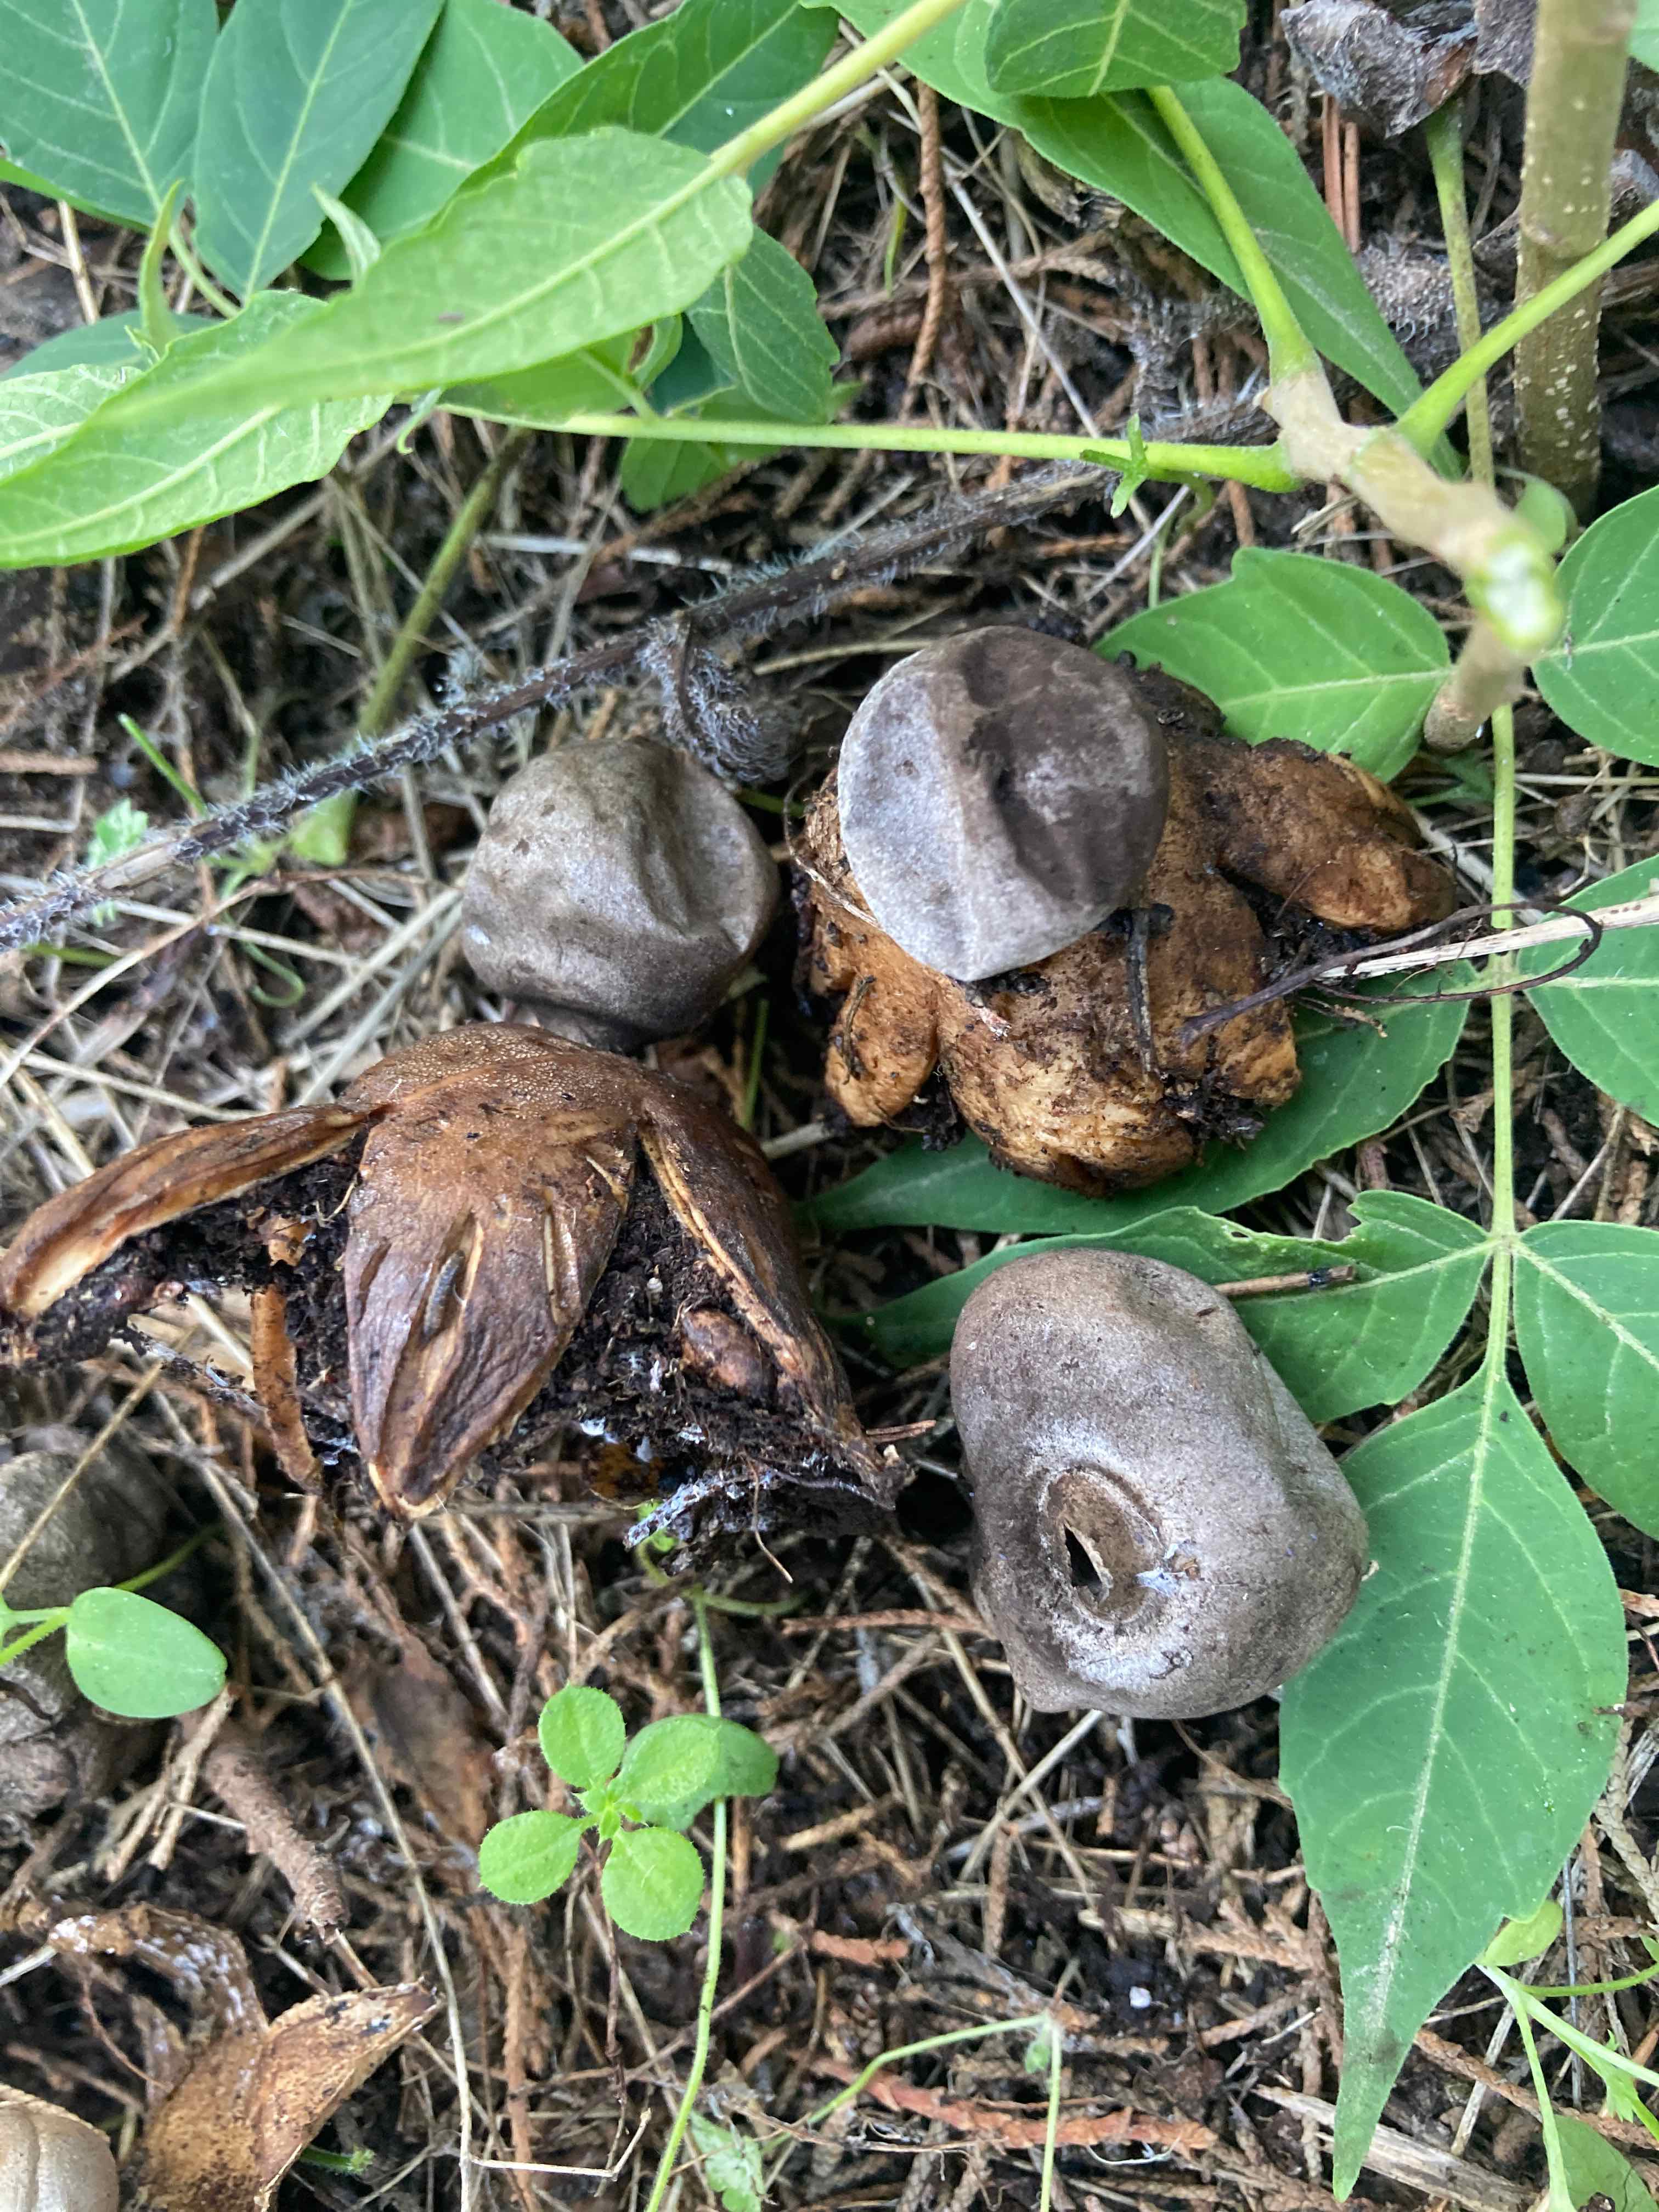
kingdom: Fungi
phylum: Basidiomycota
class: Agaricomycetes
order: Geastrales
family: Geastraceae
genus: Geastrum
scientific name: Geastrum coronatum
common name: mørk stjernebold
